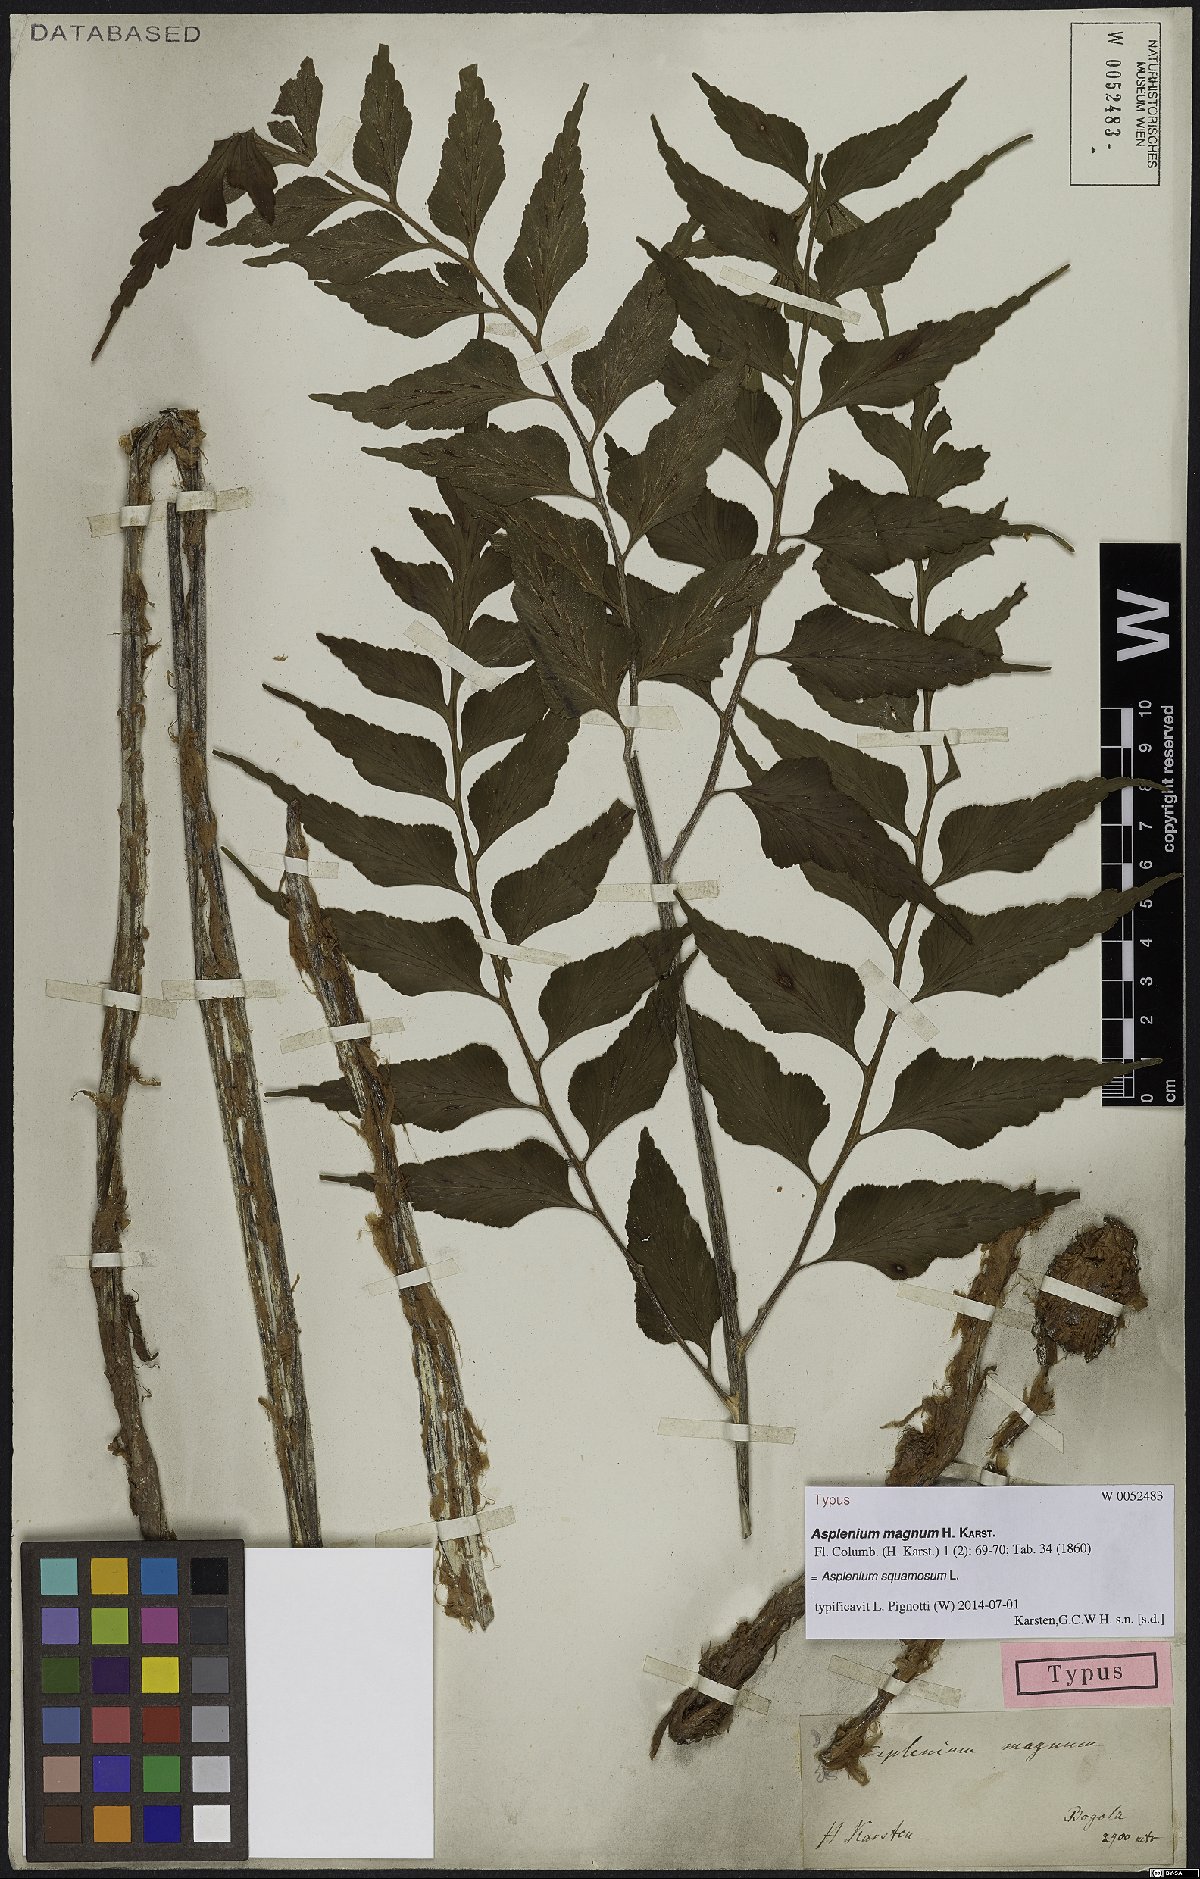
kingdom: Plantae
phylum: Tracheophyta
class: Polypodiopsida
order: Polypodiales
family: Aspleniaceae
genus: Asplenium
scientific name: Asplenium squamosum
